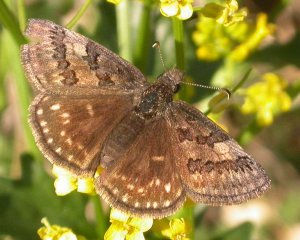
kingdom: Animalia
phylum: Arthropoda
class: Insecta
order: Lepidoptera
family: Hesperiidae
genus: Erynnis
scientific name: Erynnis brizo
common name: Sleepy Duskywing
